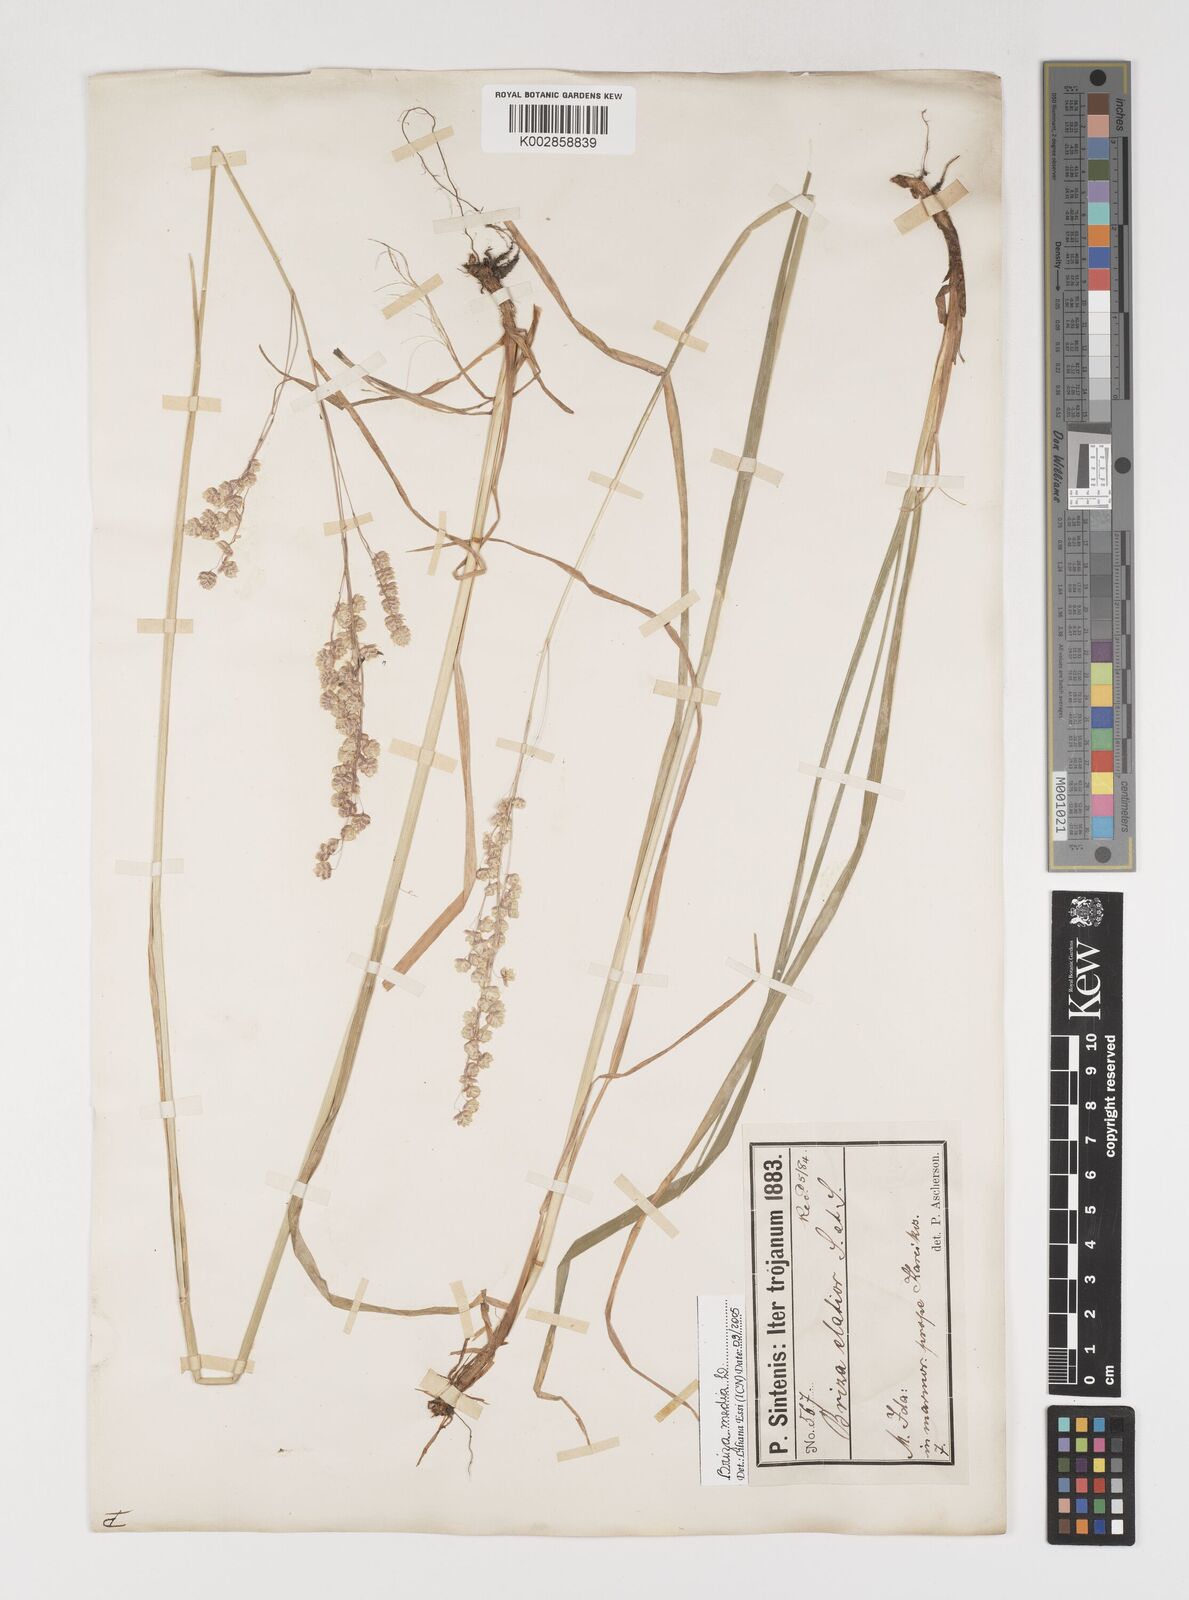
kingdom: Plantae
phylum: Tracheophyta
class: Liliopsida
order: Poales
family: Poaceae
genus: Briza
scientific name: Briza media
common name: Quaking grass
